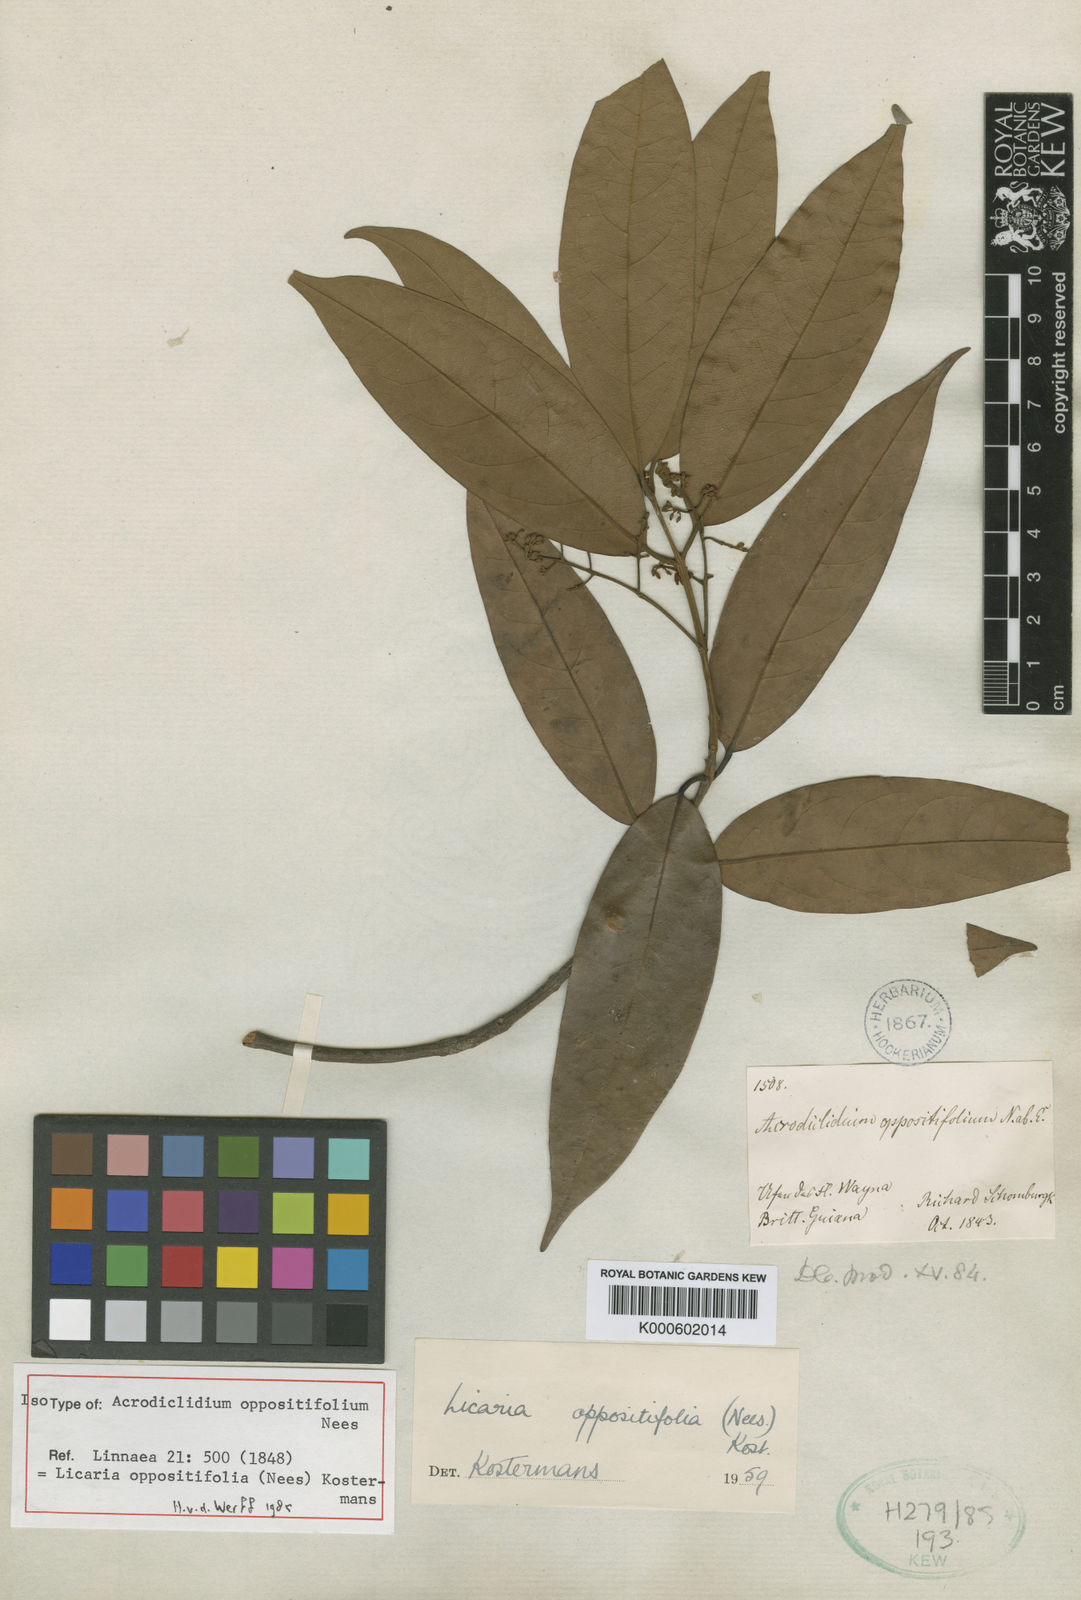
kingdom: Plantae
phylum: Tracheophyta
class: Magnoliopsida
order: Laurales
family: Lauraceae
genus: Licaria
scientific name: Licaria oppositifolia
